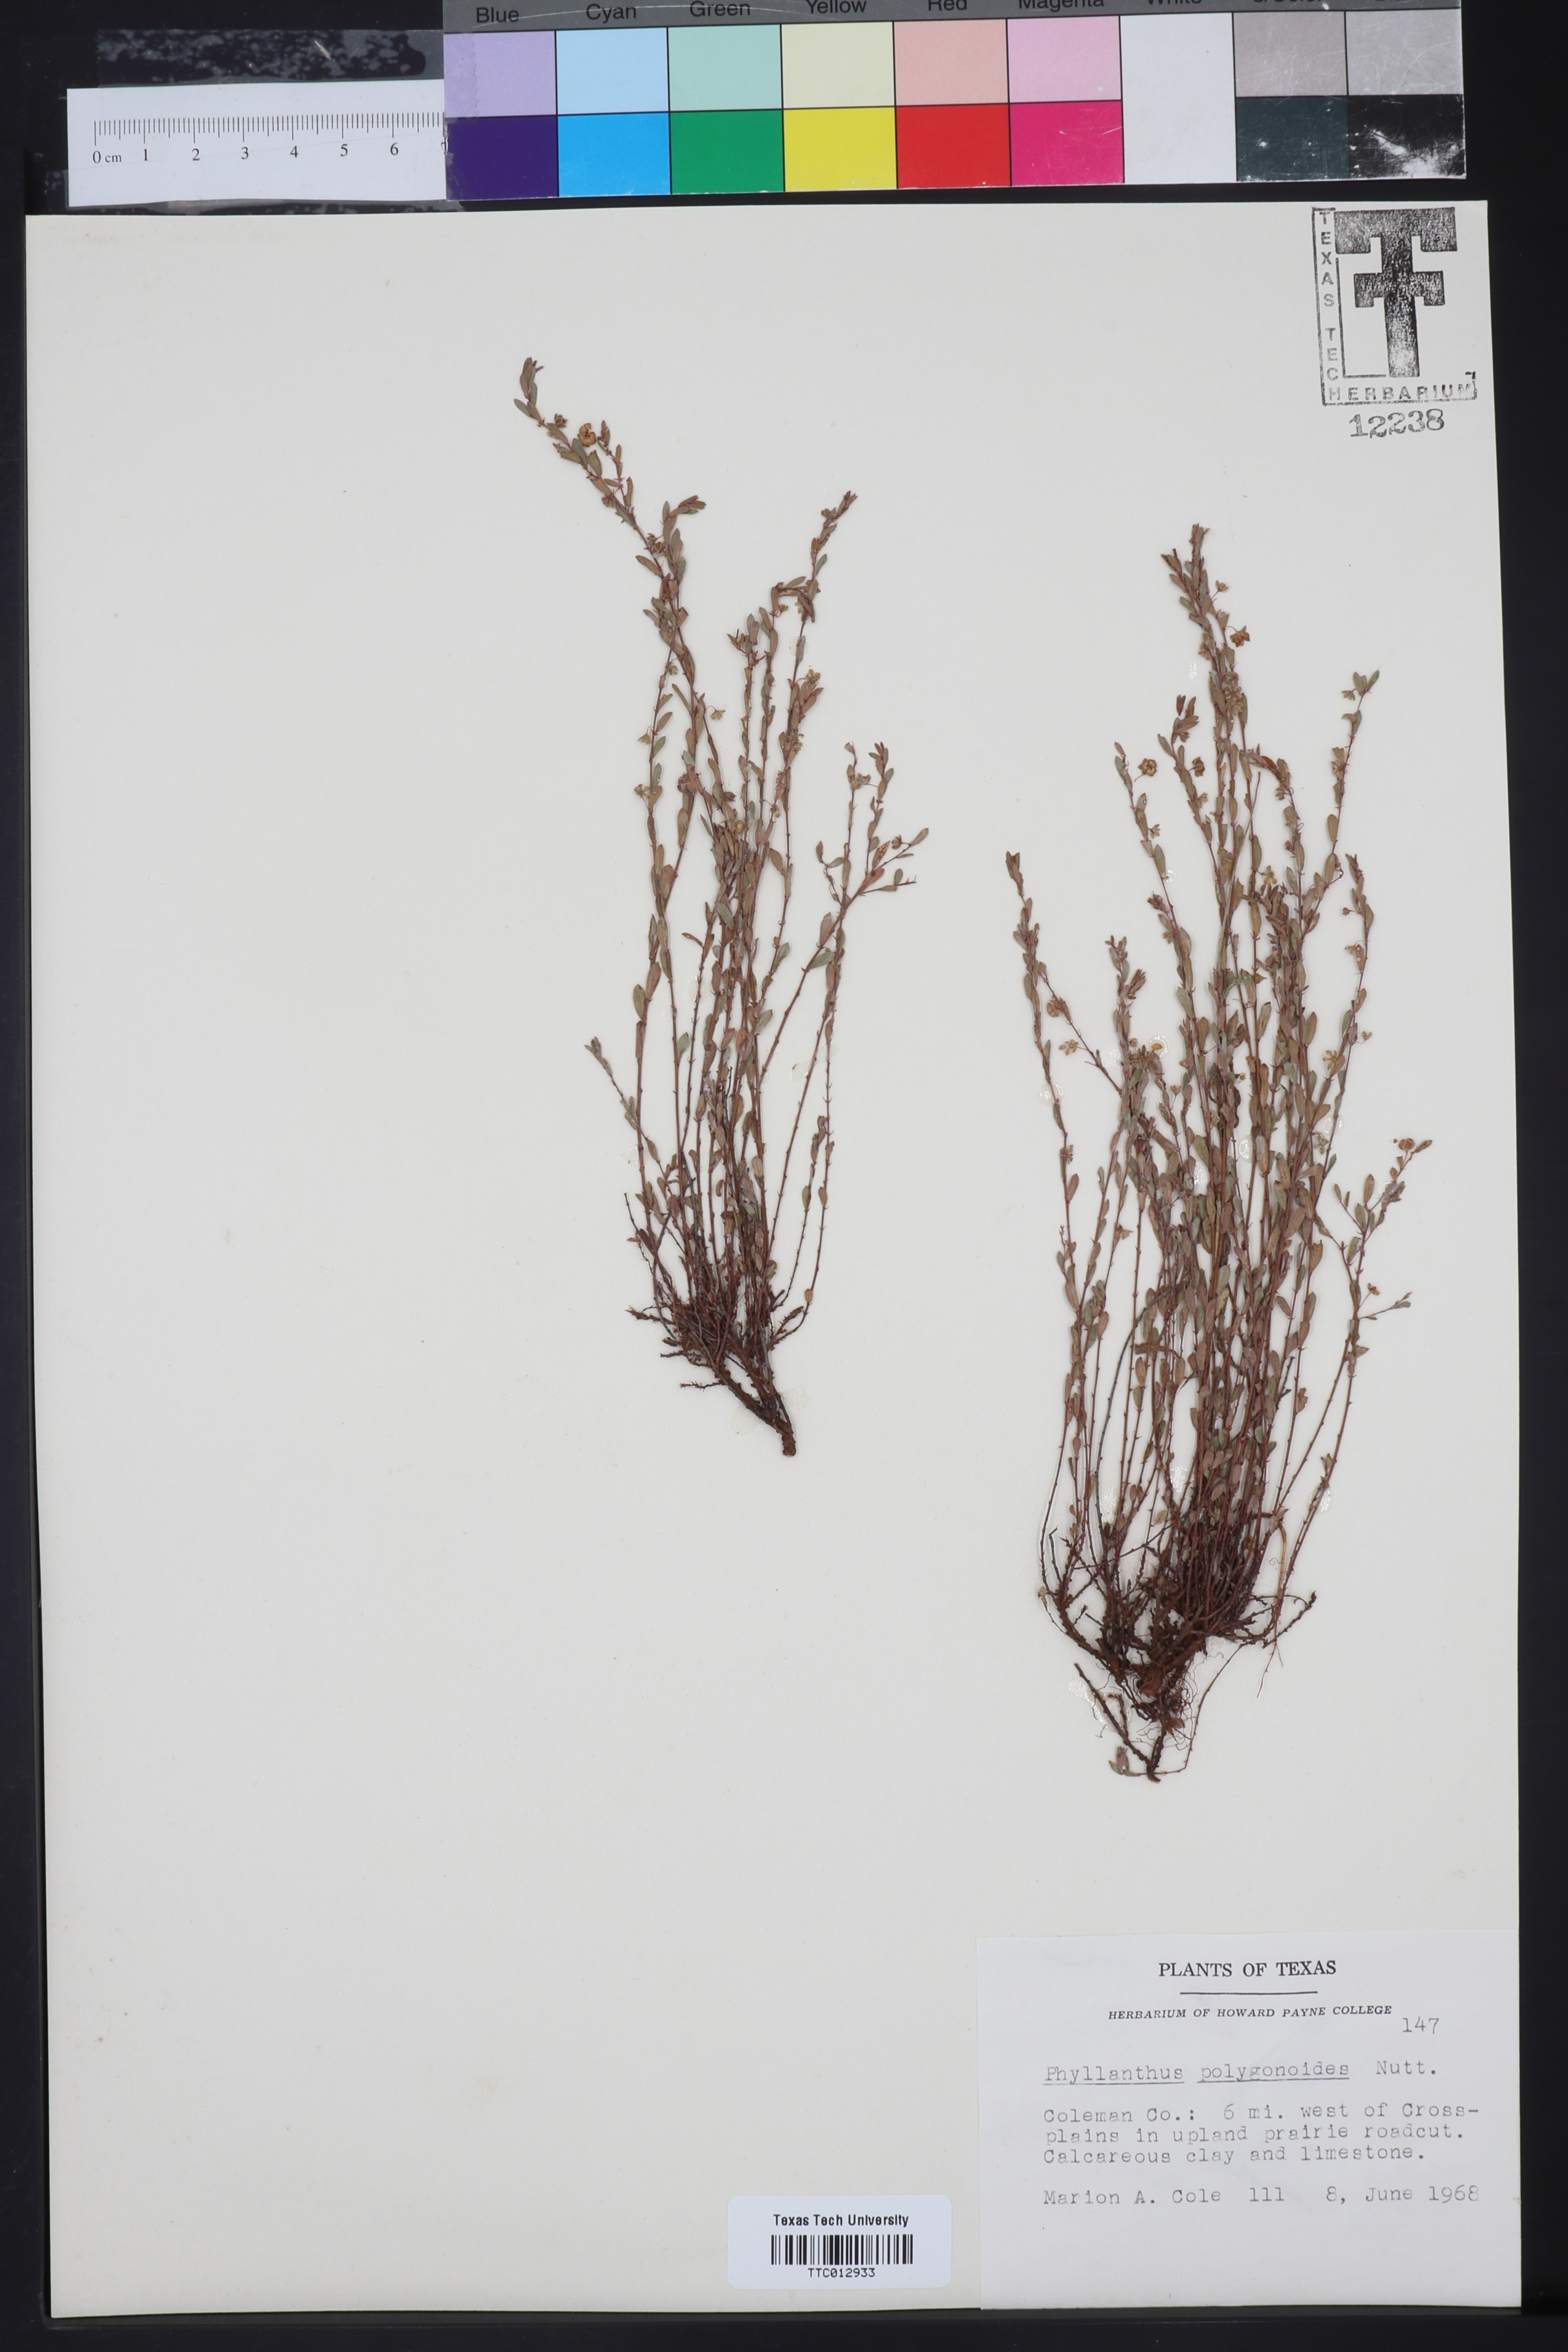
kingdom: Plantae
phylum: Tracheophyta
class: Magnoliopsida
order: Malpighiales
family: Phyllanthaceae
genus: Phyllanthus
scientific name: Phyllanthus polygonoides
